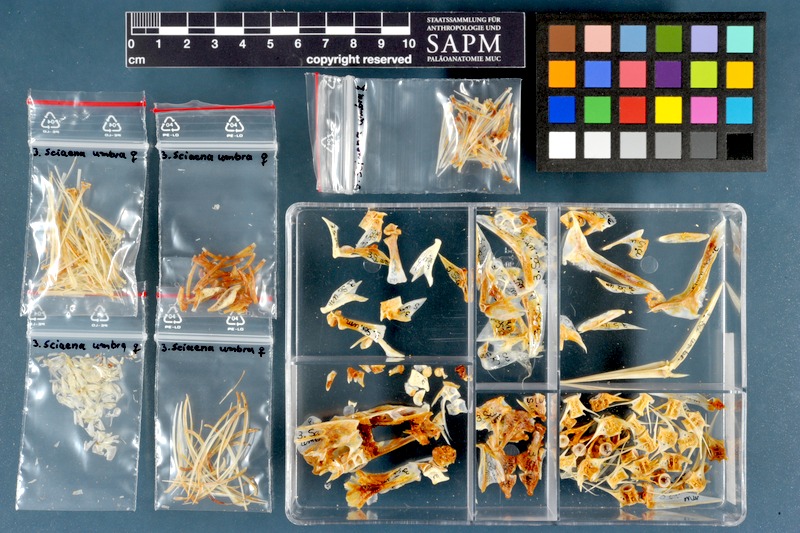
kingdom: Animalia
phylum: Chordata
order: Perciformes
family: Sciaenidae
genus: Sciaena
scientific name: Sciaena umbra
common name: Brown meagre
